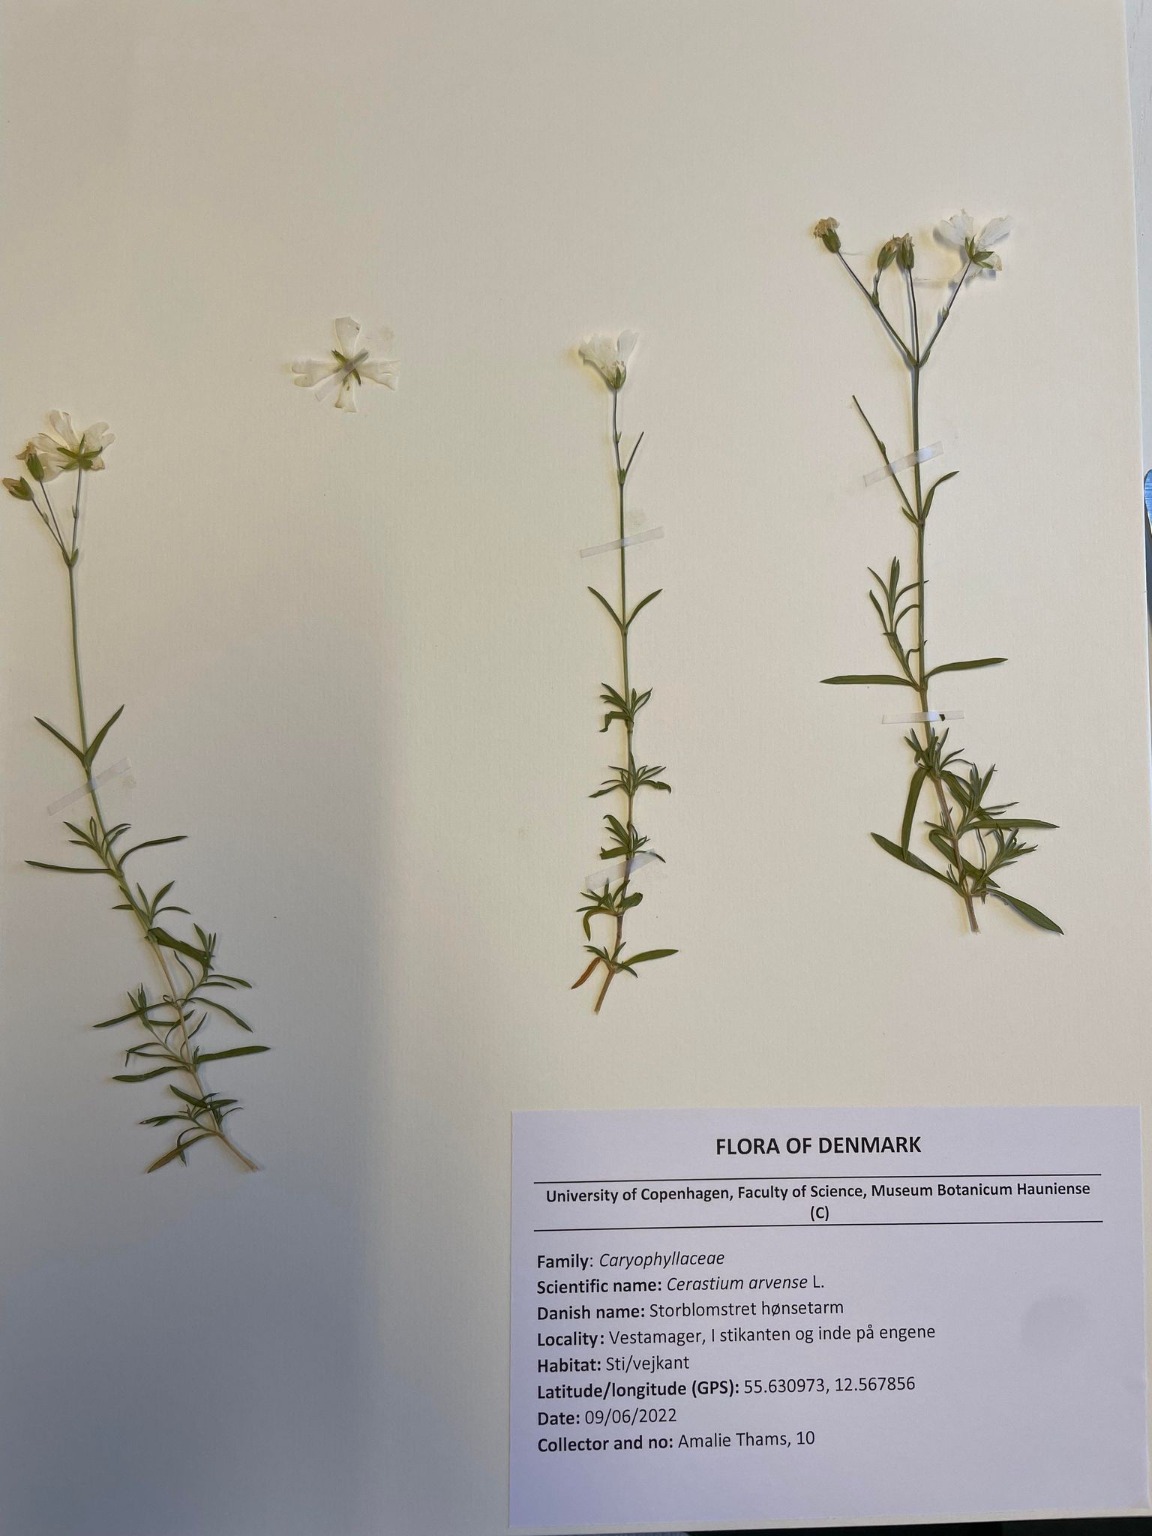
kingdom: Plantae
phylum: Tracheophyta
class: Magnoliopsida
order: Caryophyllales
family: Caryophyllaceae
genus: Cerastium
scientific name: Cerastium arvense
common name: Storblomstret hønsetarm
